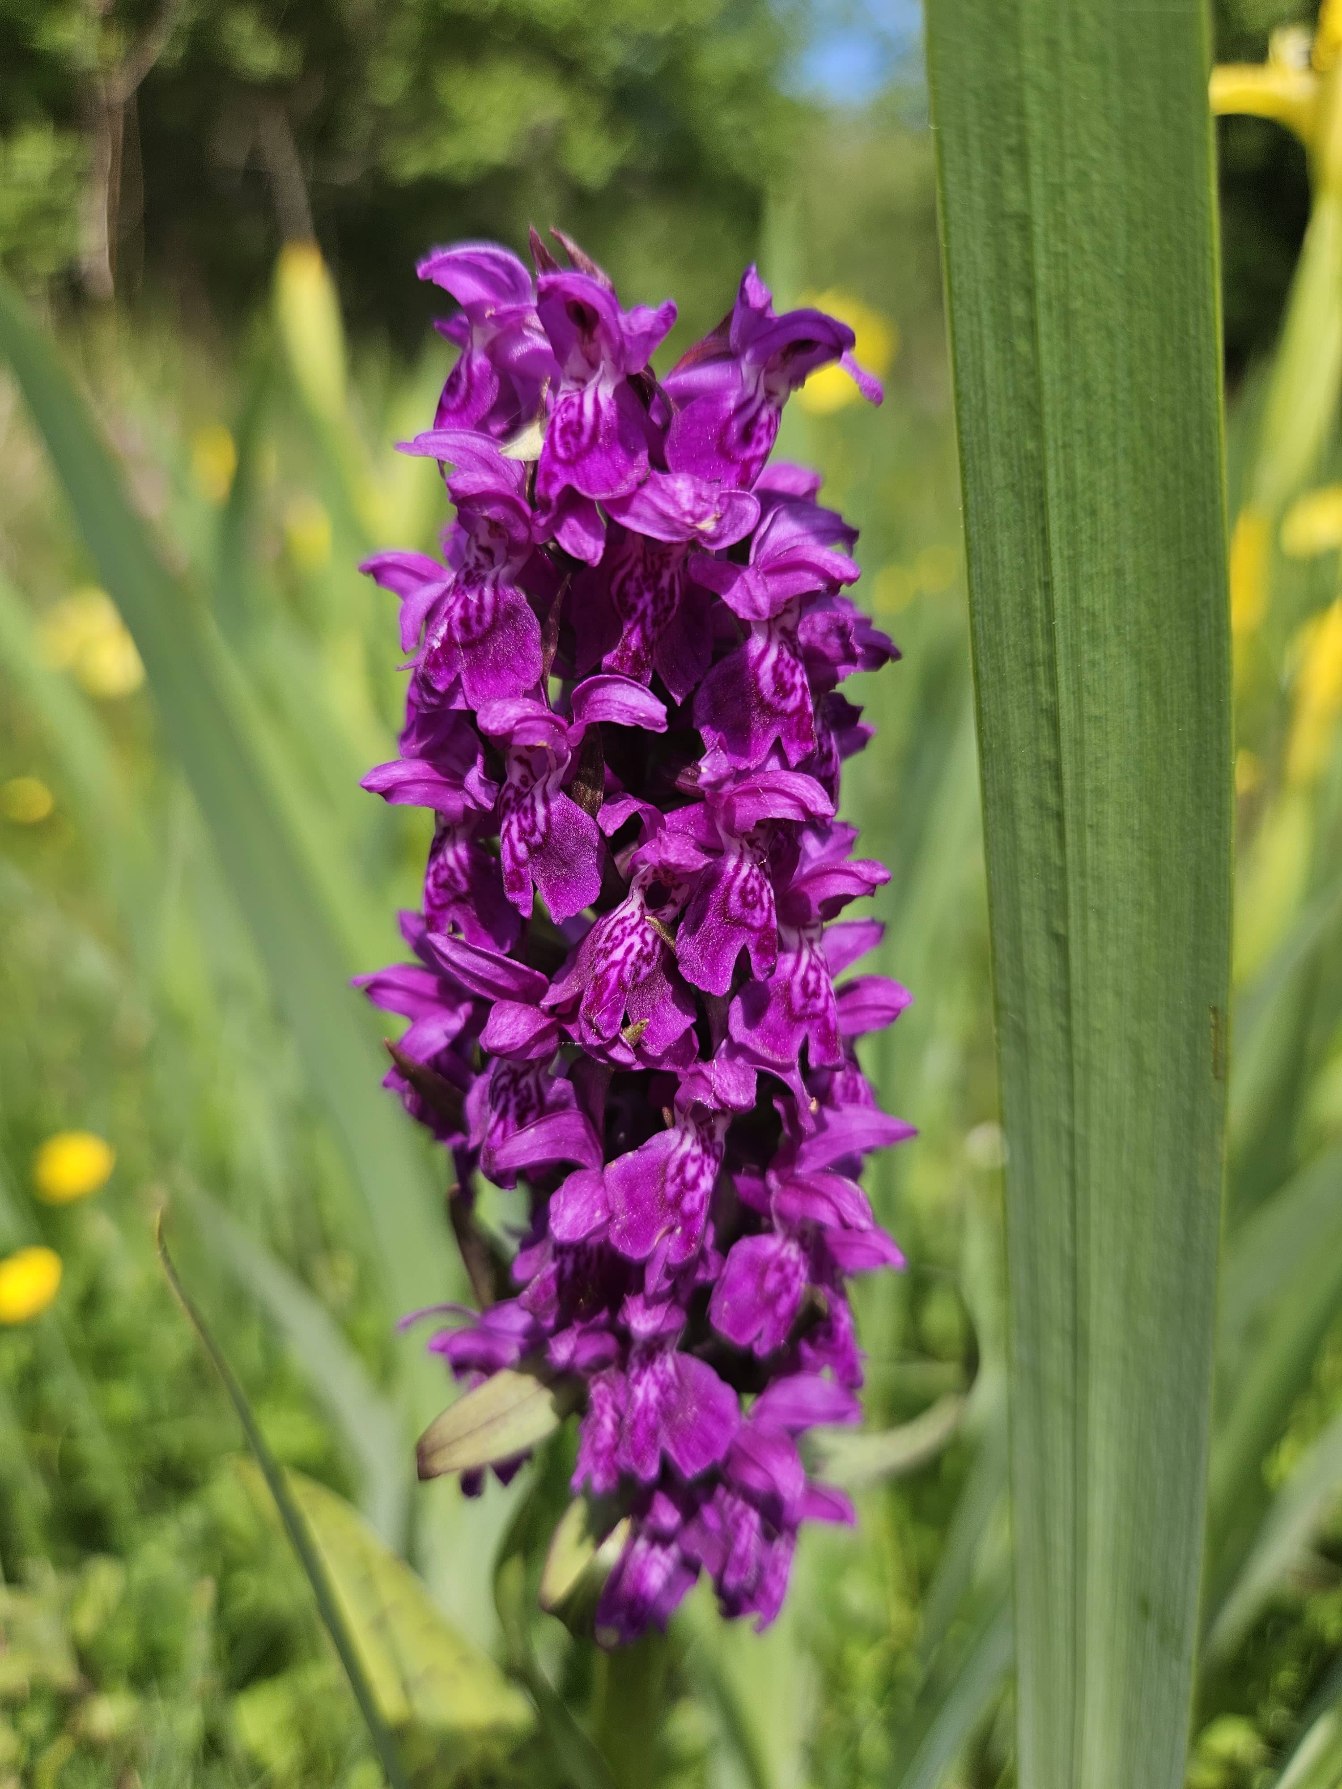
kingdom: Plantae
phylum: Tracheophyta
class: Liliopsida
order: Asparagales
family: Orchidaceae
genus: Dactylorhiza
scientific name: Dactylorhiza majalis
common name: Maj-gøgeurt
